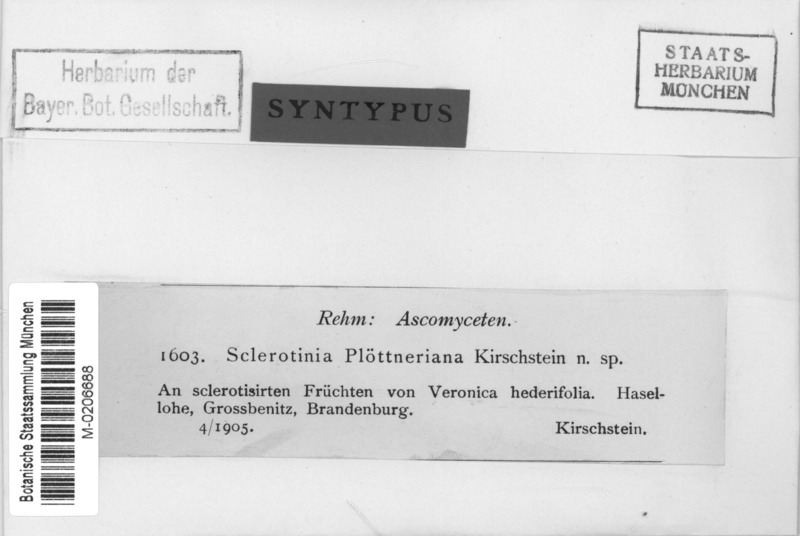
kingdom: Fungi
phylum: Ascomycota
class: Leotiomycetes
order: Helotiales
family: Sclerotiniaceae
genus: Ciboria
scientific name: Ciboria ploettneriana
